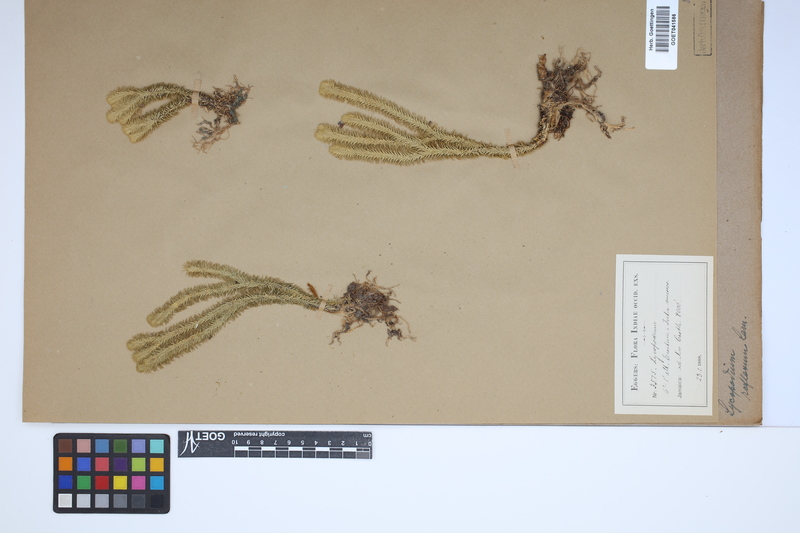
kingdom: Plantae
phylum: Tracheophyta
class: Lycopodiopsida
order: Lycopodiales
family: Lycopodiaceae
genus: Huperzia
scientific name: Huperzia lucidula
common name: Shining clubmoss
